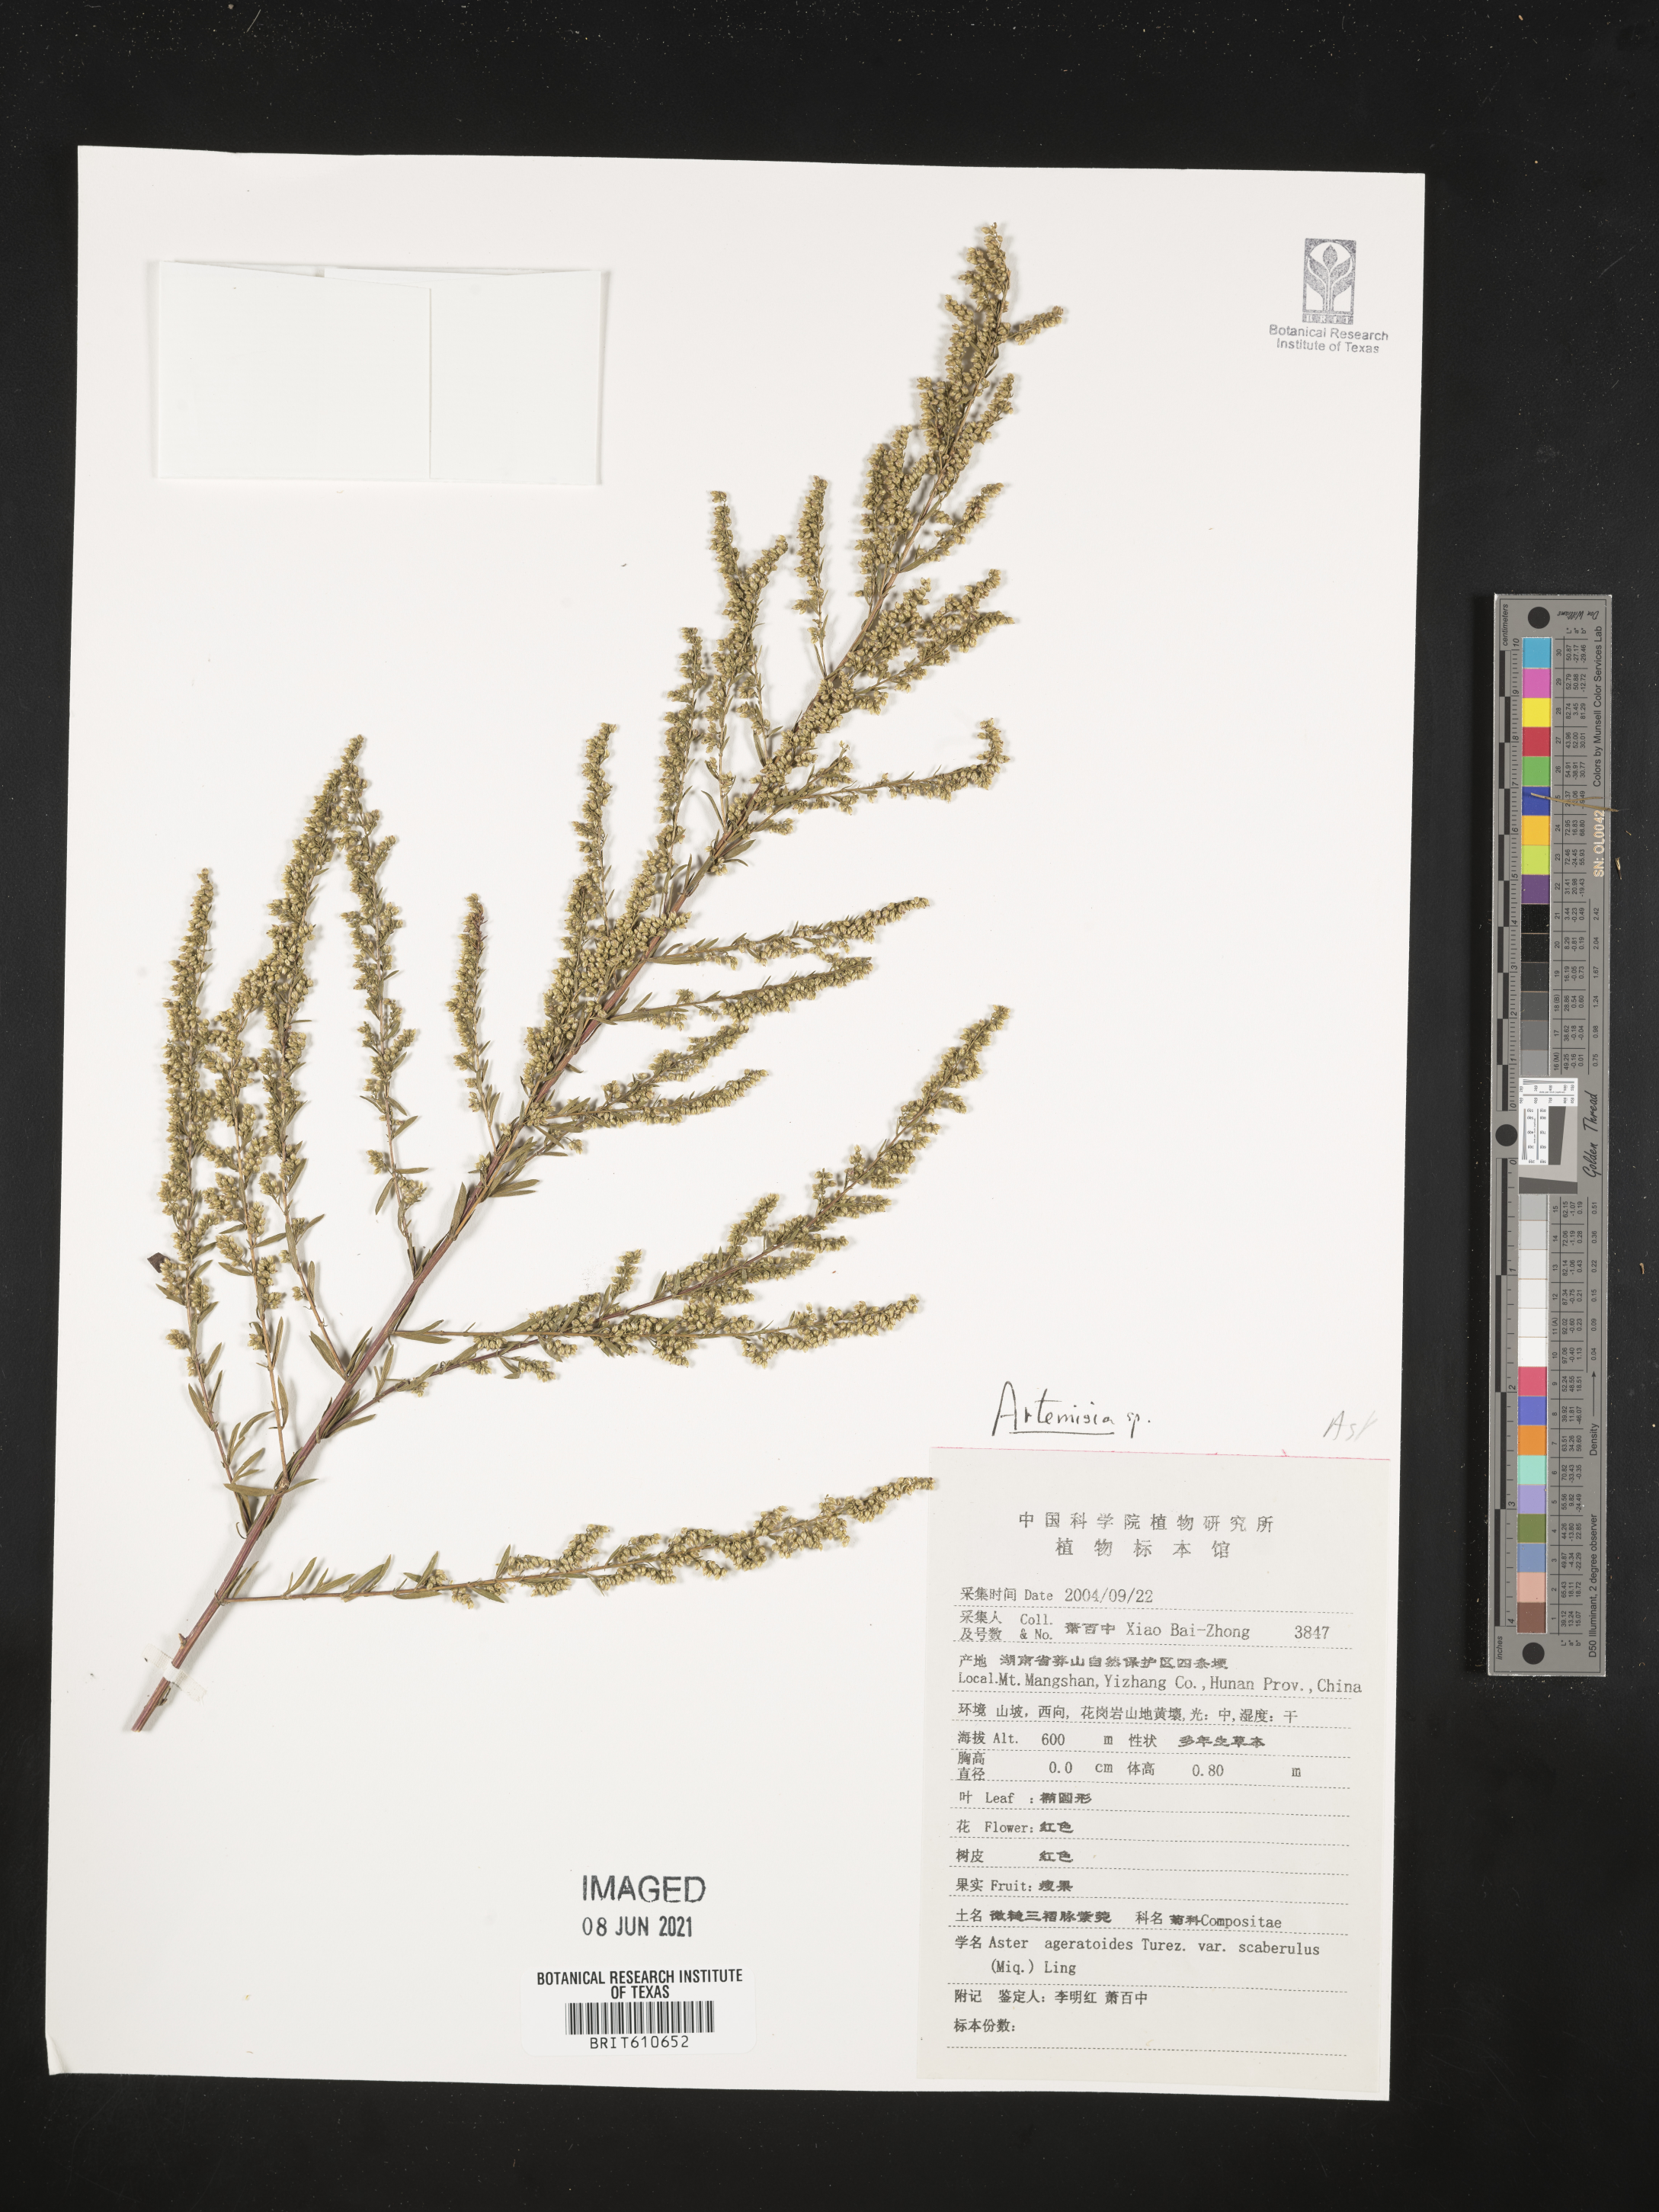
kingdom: Plantae
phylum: Tracheophyta
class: Magnoliopsida
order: Asterales
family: Asteraceae
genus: Artemisia
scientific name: Artemisia
